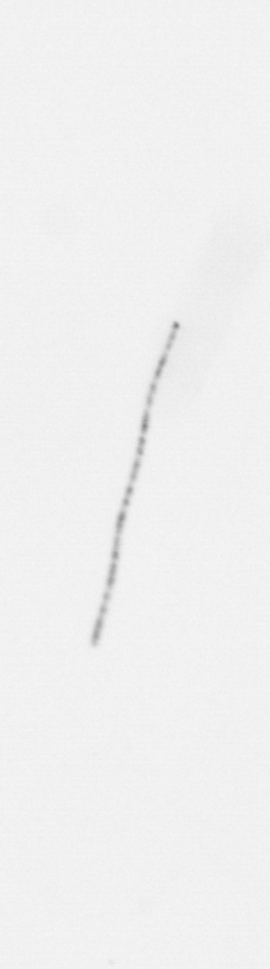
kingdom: Chromista
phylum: Ochrophyta
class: Bacillariophyceae
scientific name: Bacillariophyceae
